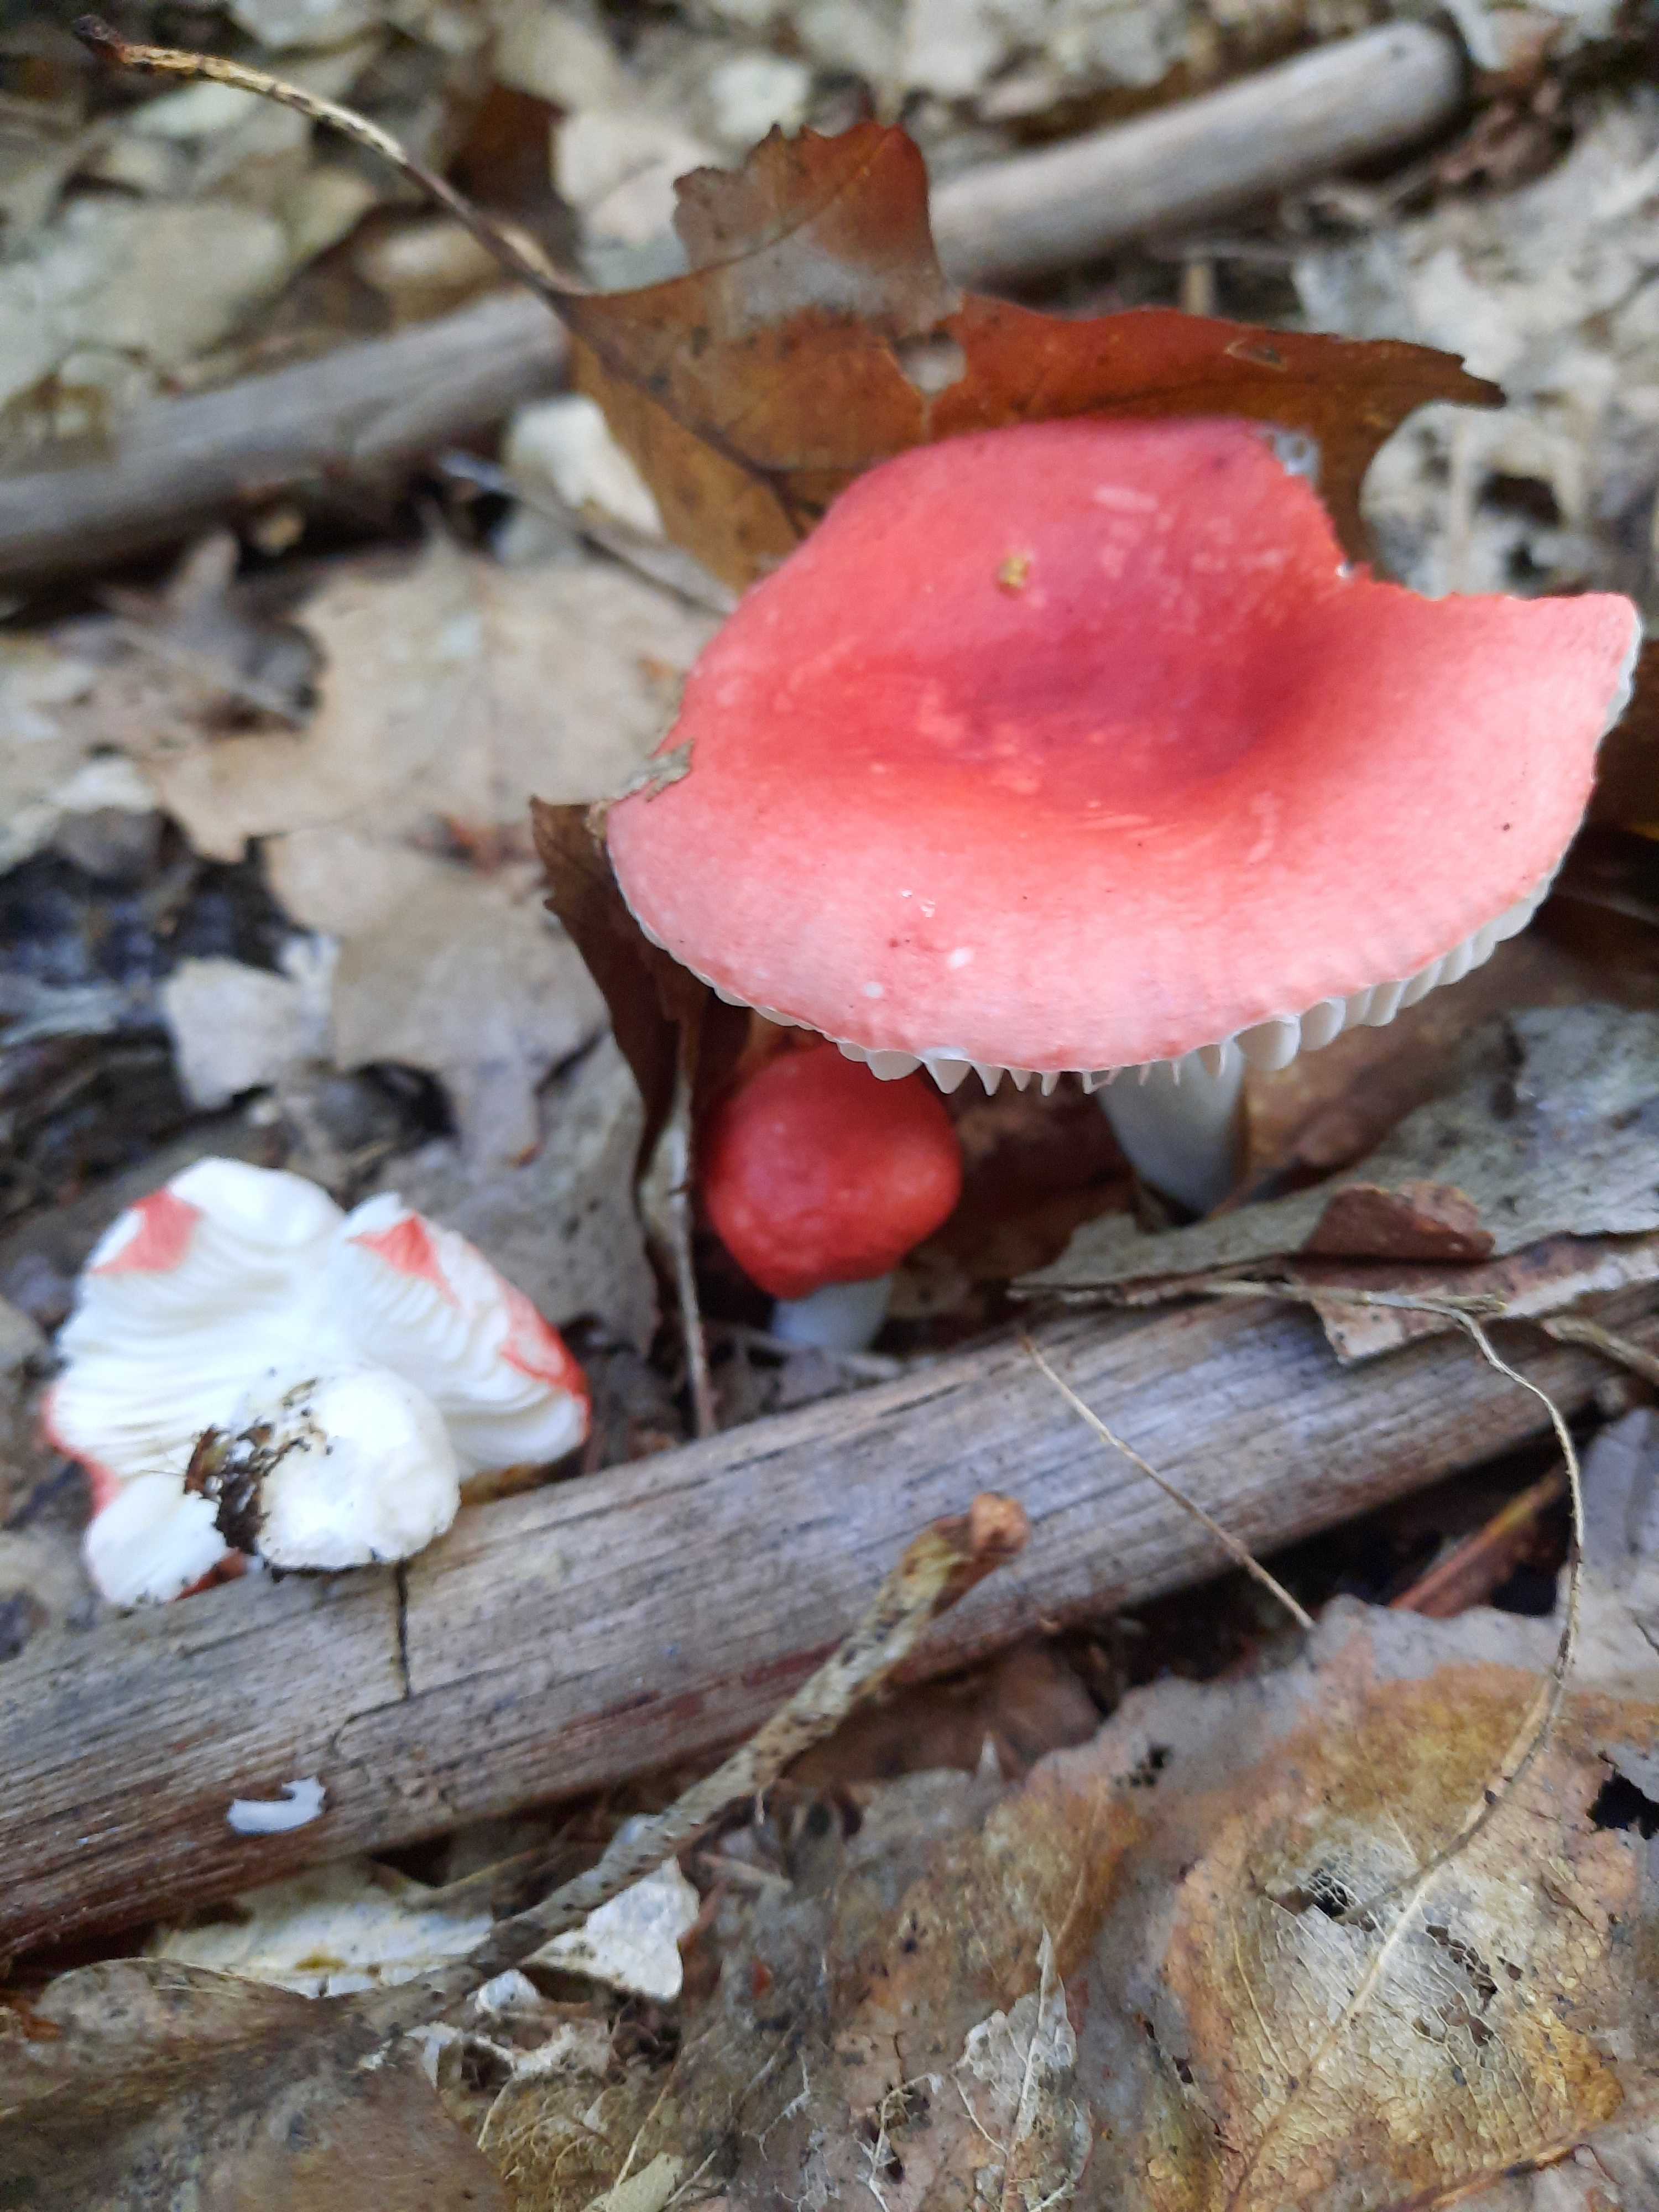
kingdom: Fungi
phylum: Basidiomycota
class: Agaricomycetes
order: Russulales
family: Russulaceae
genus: Russula
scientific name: Russula silvestris
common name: mellemstor gift-skørhat
